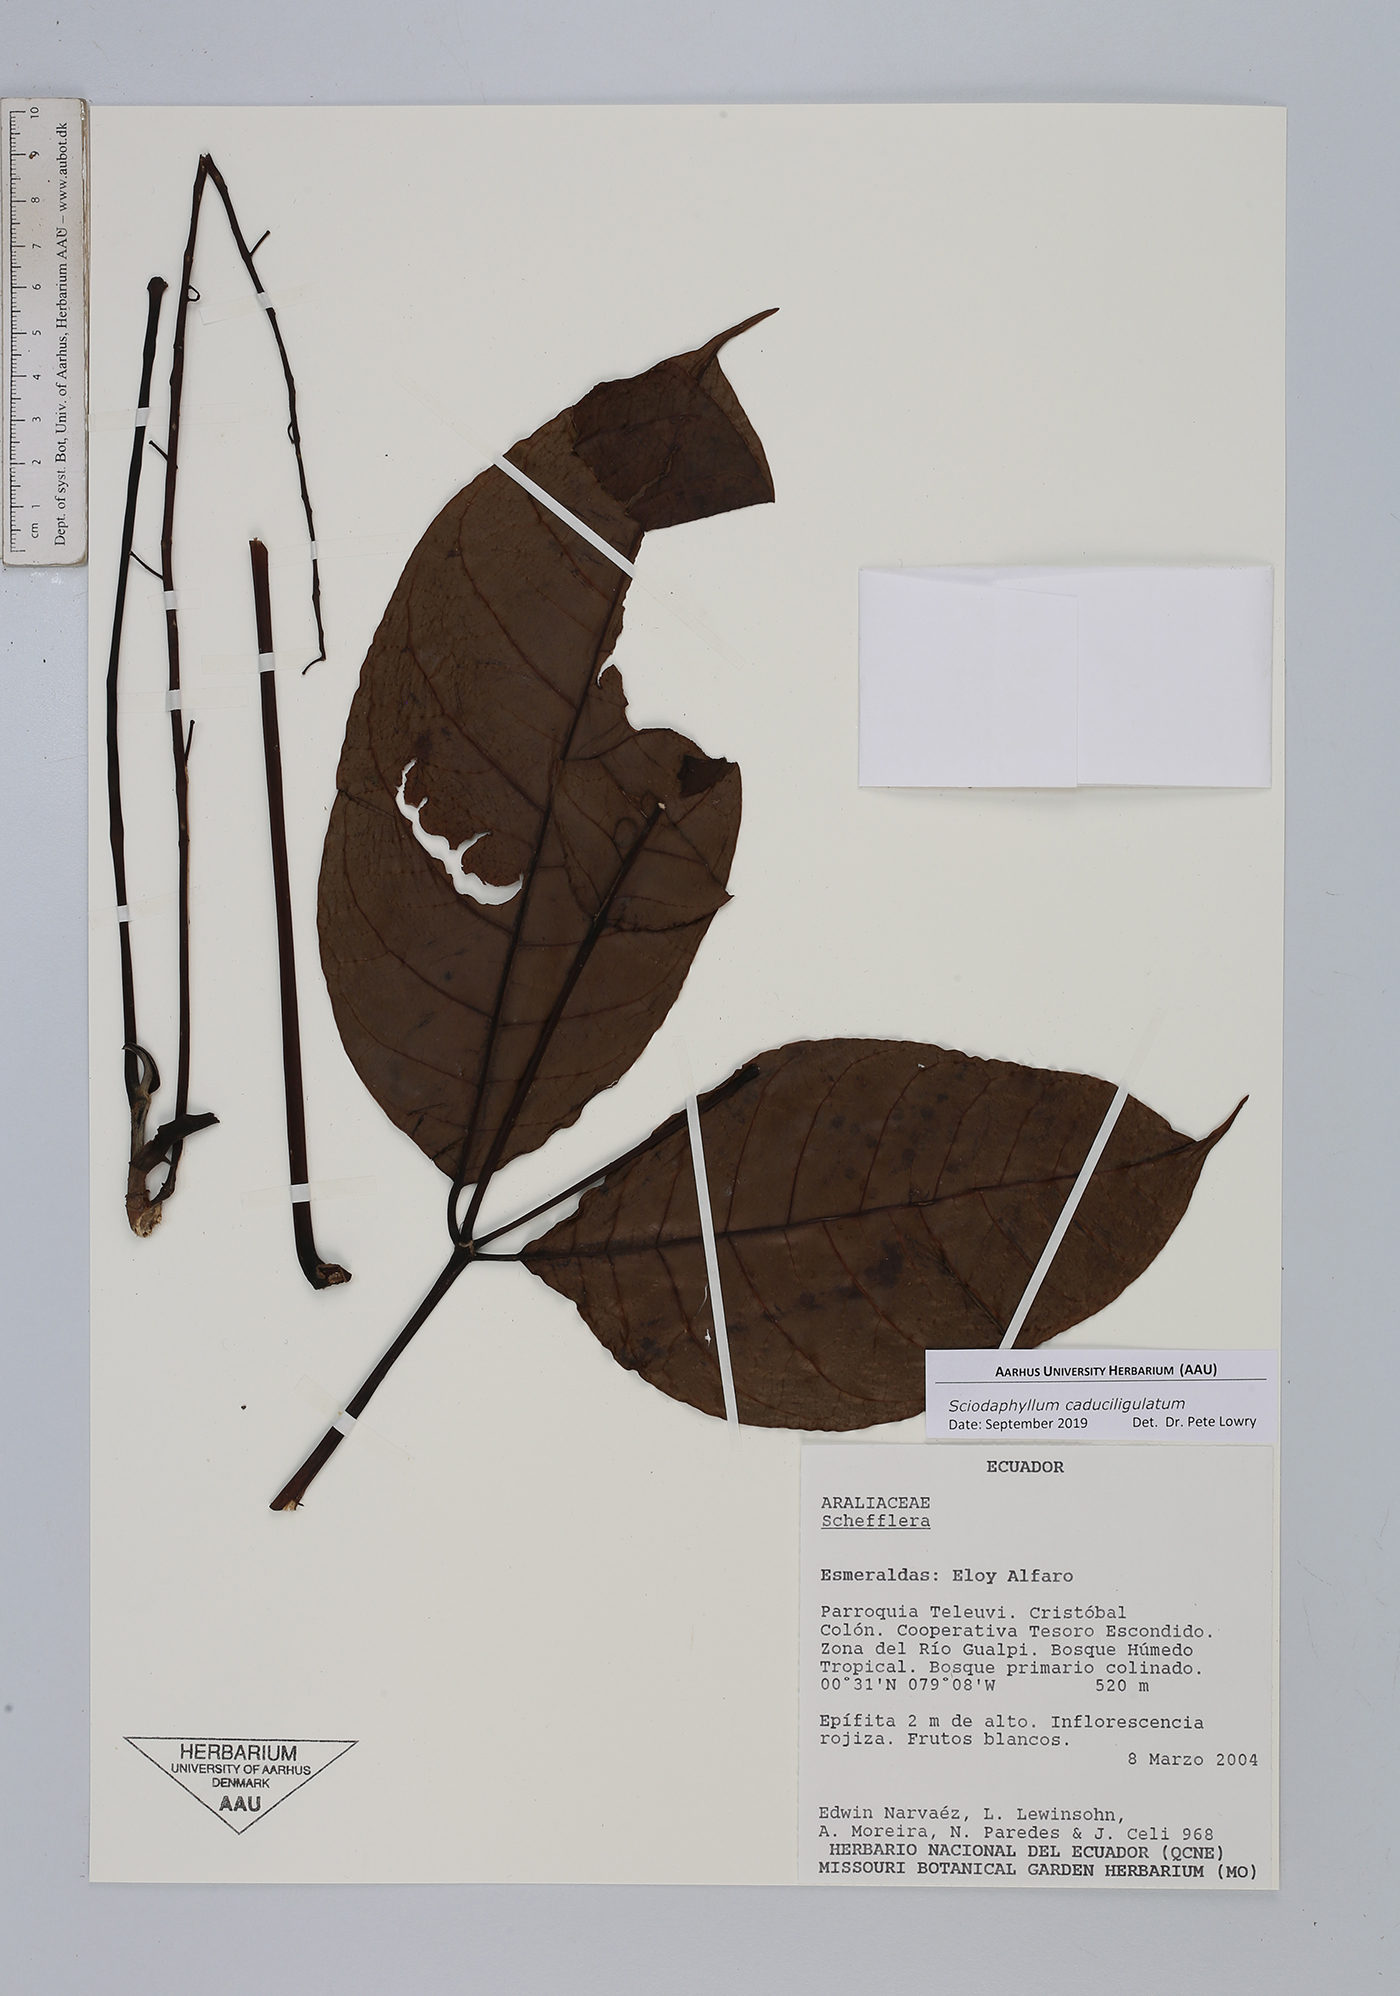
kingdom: Plantae
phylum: Tracheophyta
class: Magnoliopsida
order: Apiales
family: Araliaceae
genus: Sciodaphyllum
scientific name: Sciodaphyllum
